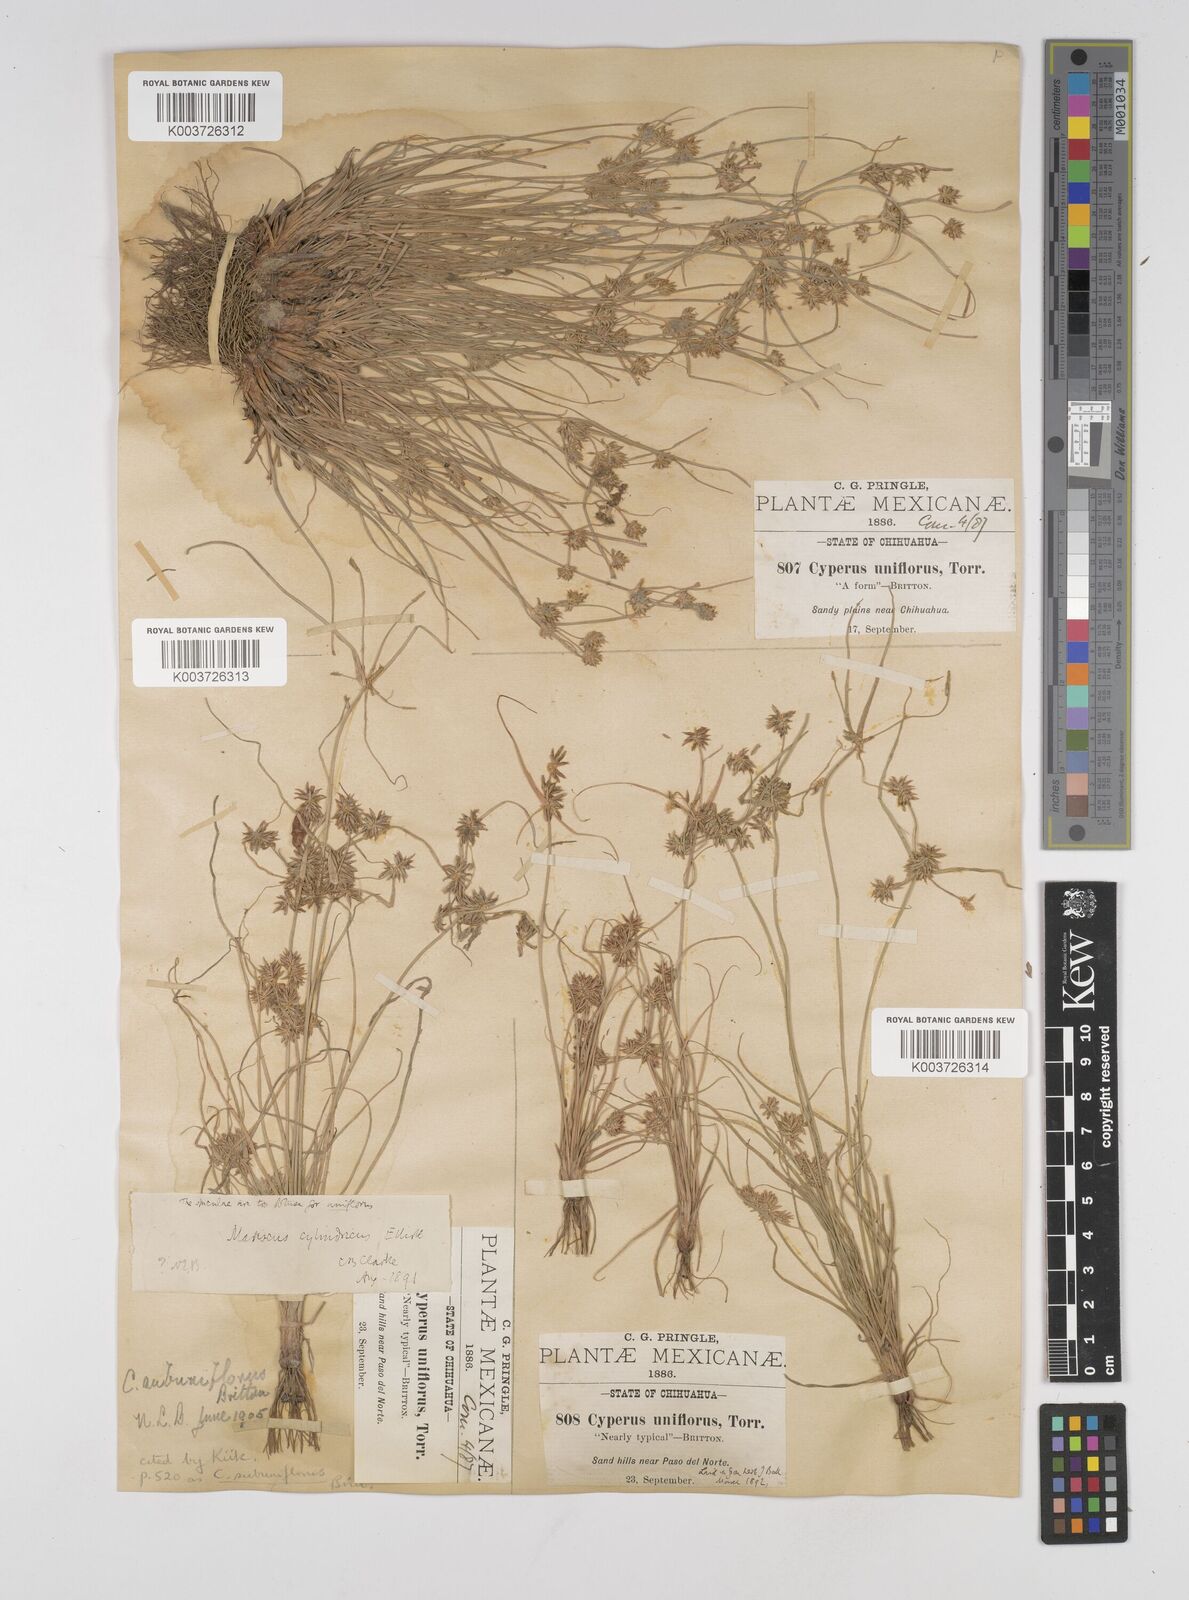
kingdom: Plantae
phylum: Tracheophyta
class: Liliopsida
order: Poales
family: Cyperaceae
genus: Cyperus
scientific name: Cyperus retroflexus
